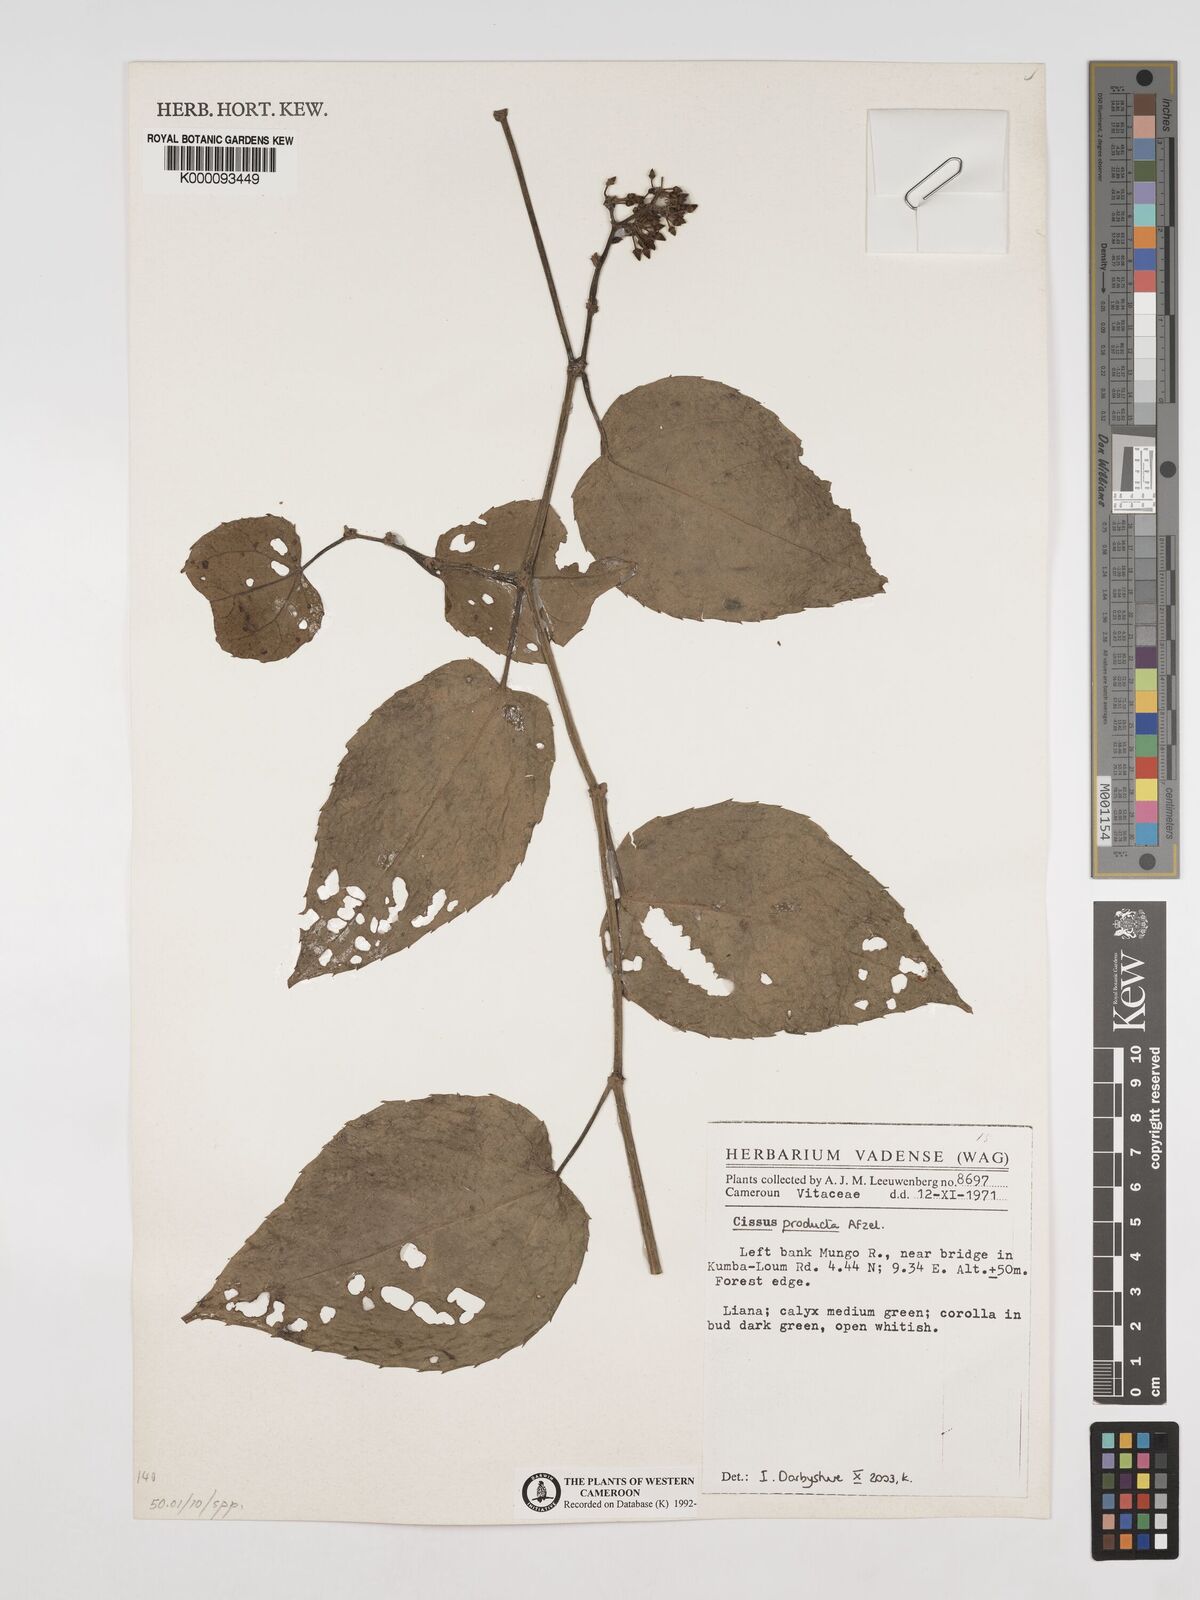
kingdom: Plantae
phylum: Tracheophyta
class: Magnoliopsida
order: Vitales
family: Vitaceae
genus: Cissus
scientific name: Cissus producta
